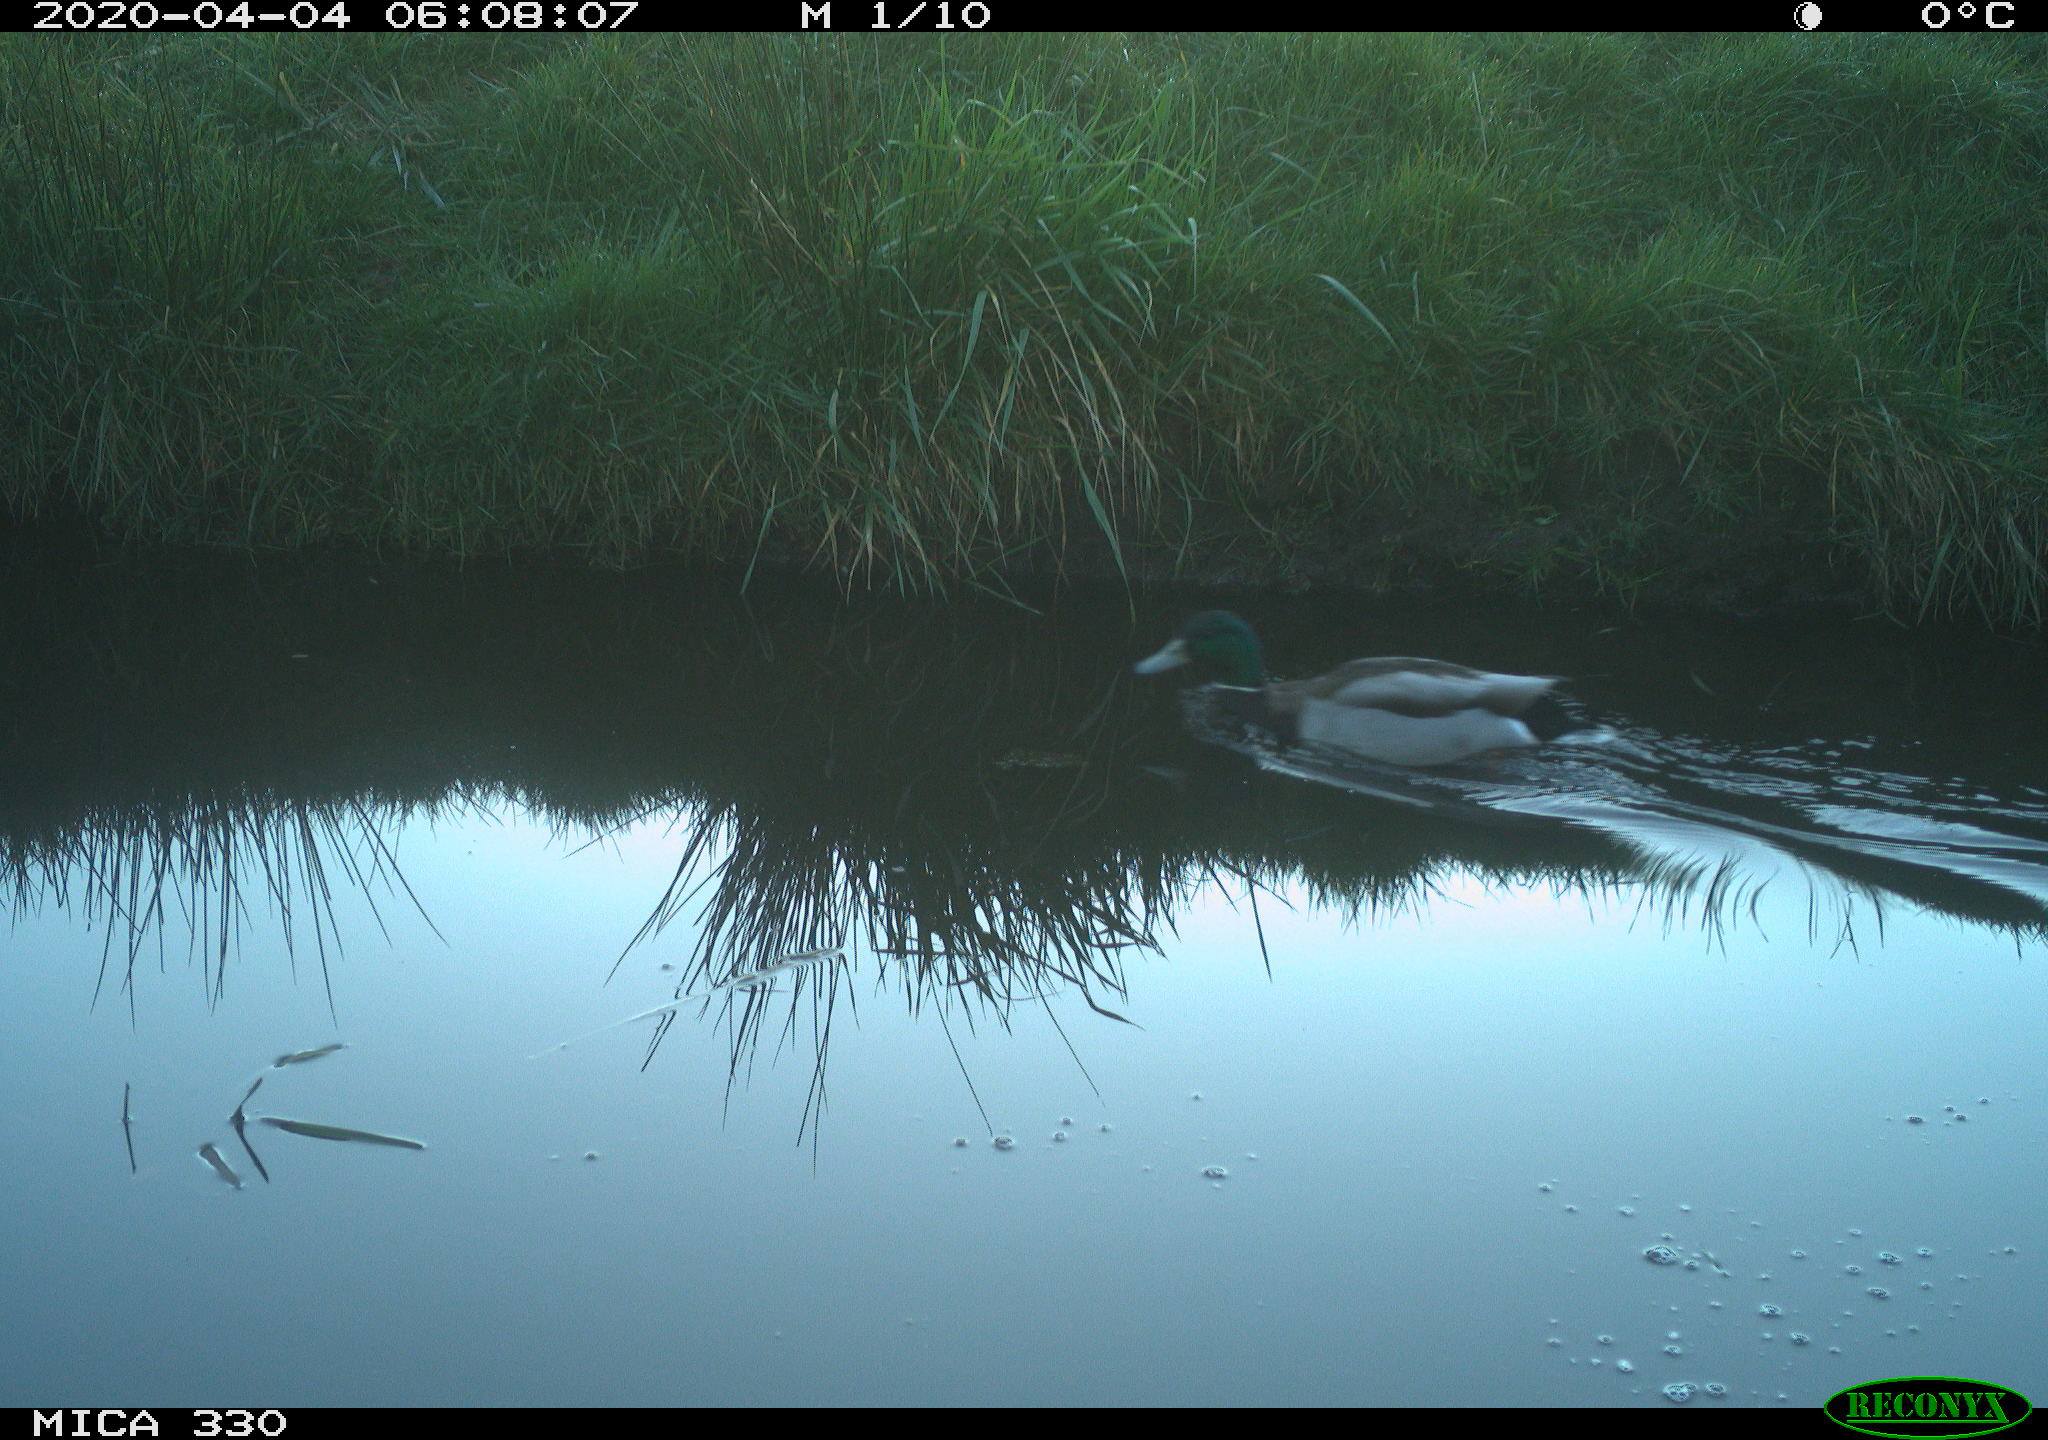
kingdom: Animalia
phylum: Chordata
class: Aves
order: Anseriformes
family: Anatidae
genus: Anas
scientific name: Anas platyrhynchos
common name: Mallard
